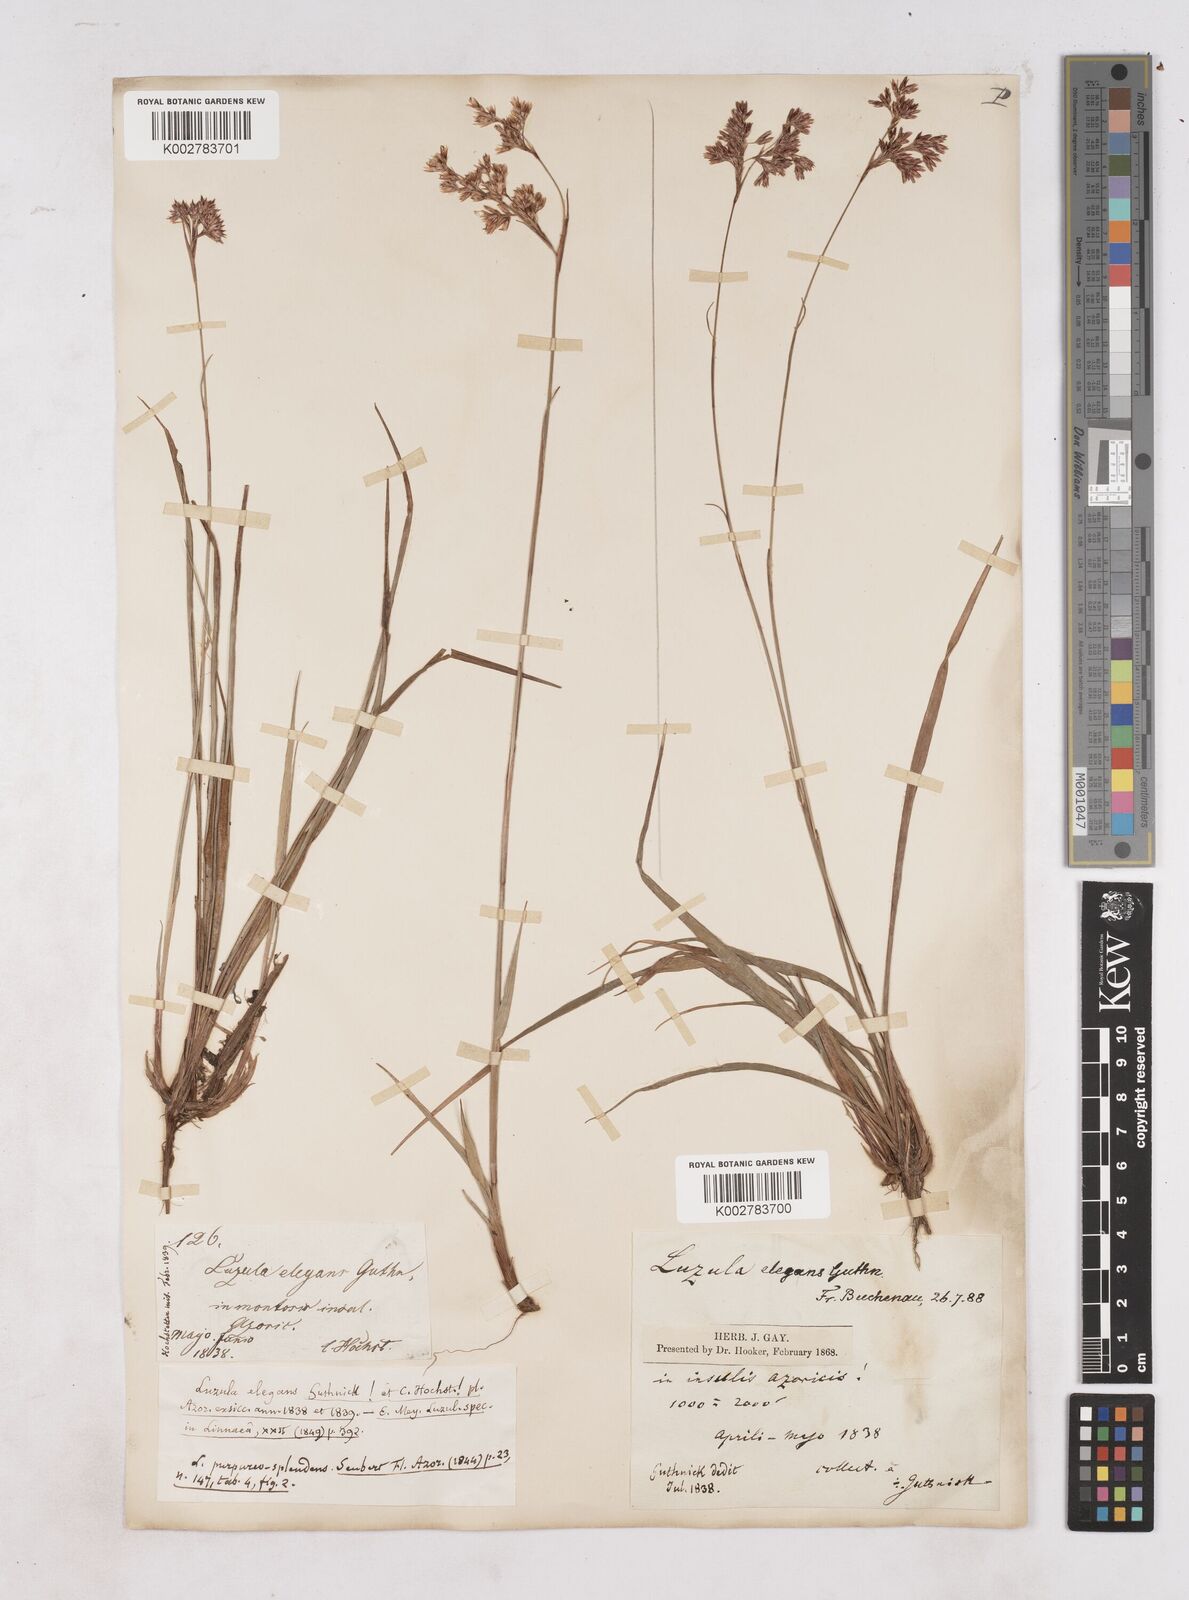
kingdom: Plantae
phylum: Tracheophyta
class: Liliopsida
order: Poales
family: Juncaceae
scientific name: Juncaceae
